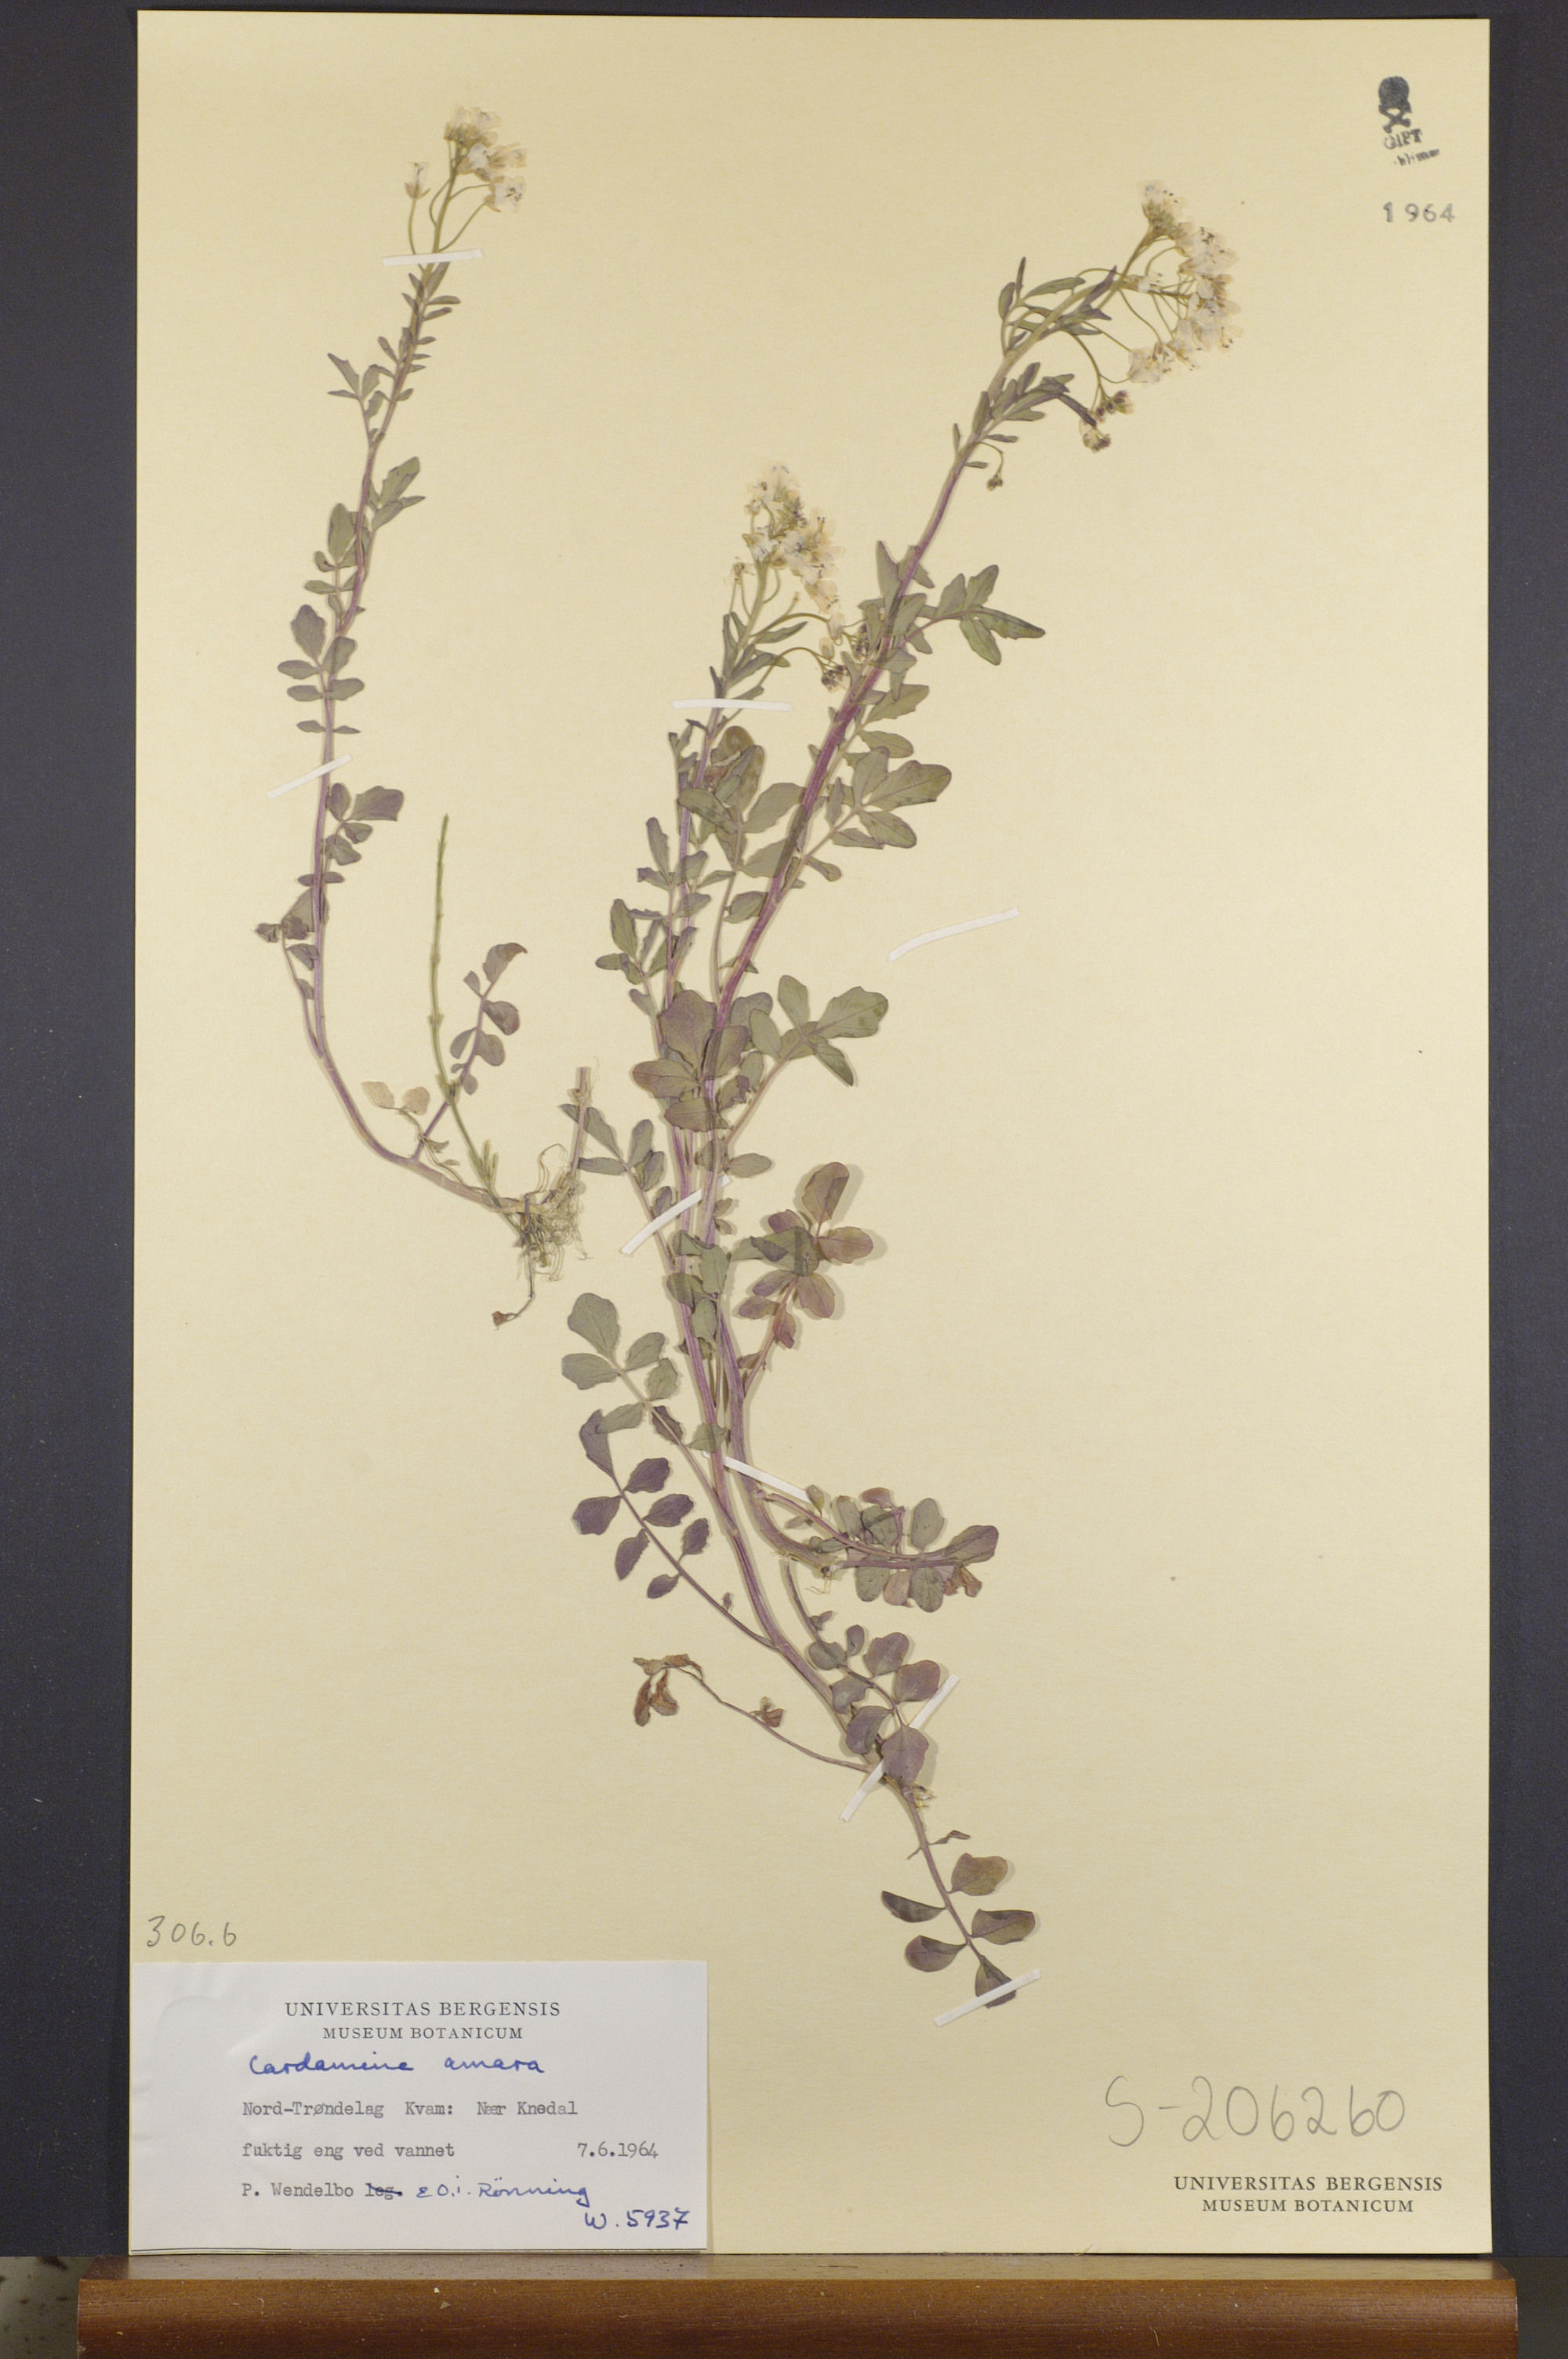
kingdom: Plantae
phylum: Tracheophyta
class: Magnoliopsida
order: Brassicales
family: Brassicaceae
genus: Cardamine
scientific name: Cardamine amara
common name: Large bitter-cress
